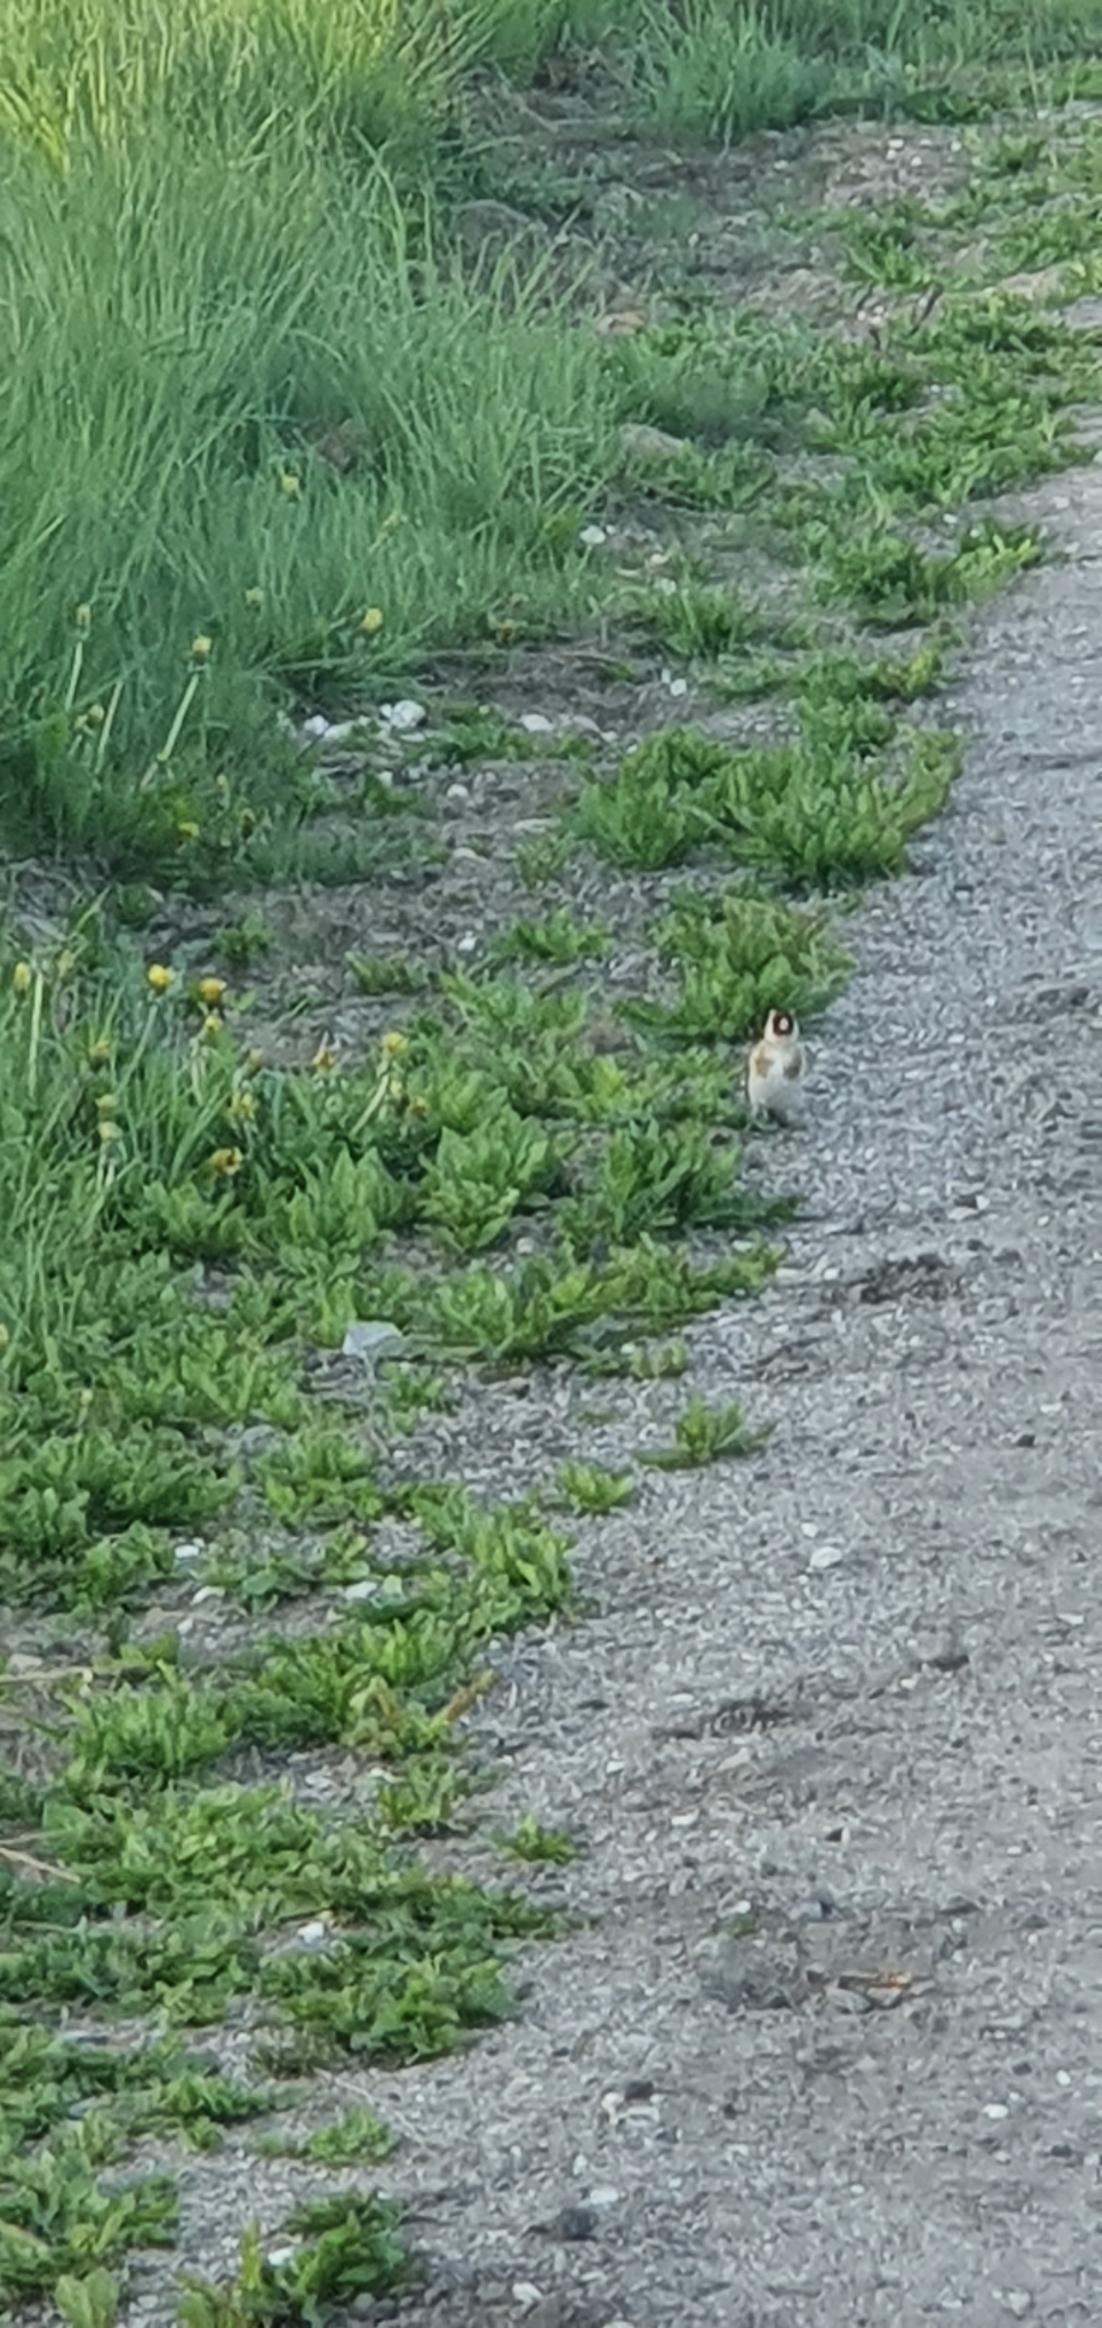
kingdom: Animalia
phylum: Chordata
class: Aves
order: Passeriformes
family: Fringillidae
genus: Carduelis
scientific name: Carduelis carduelis
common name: Stillits
